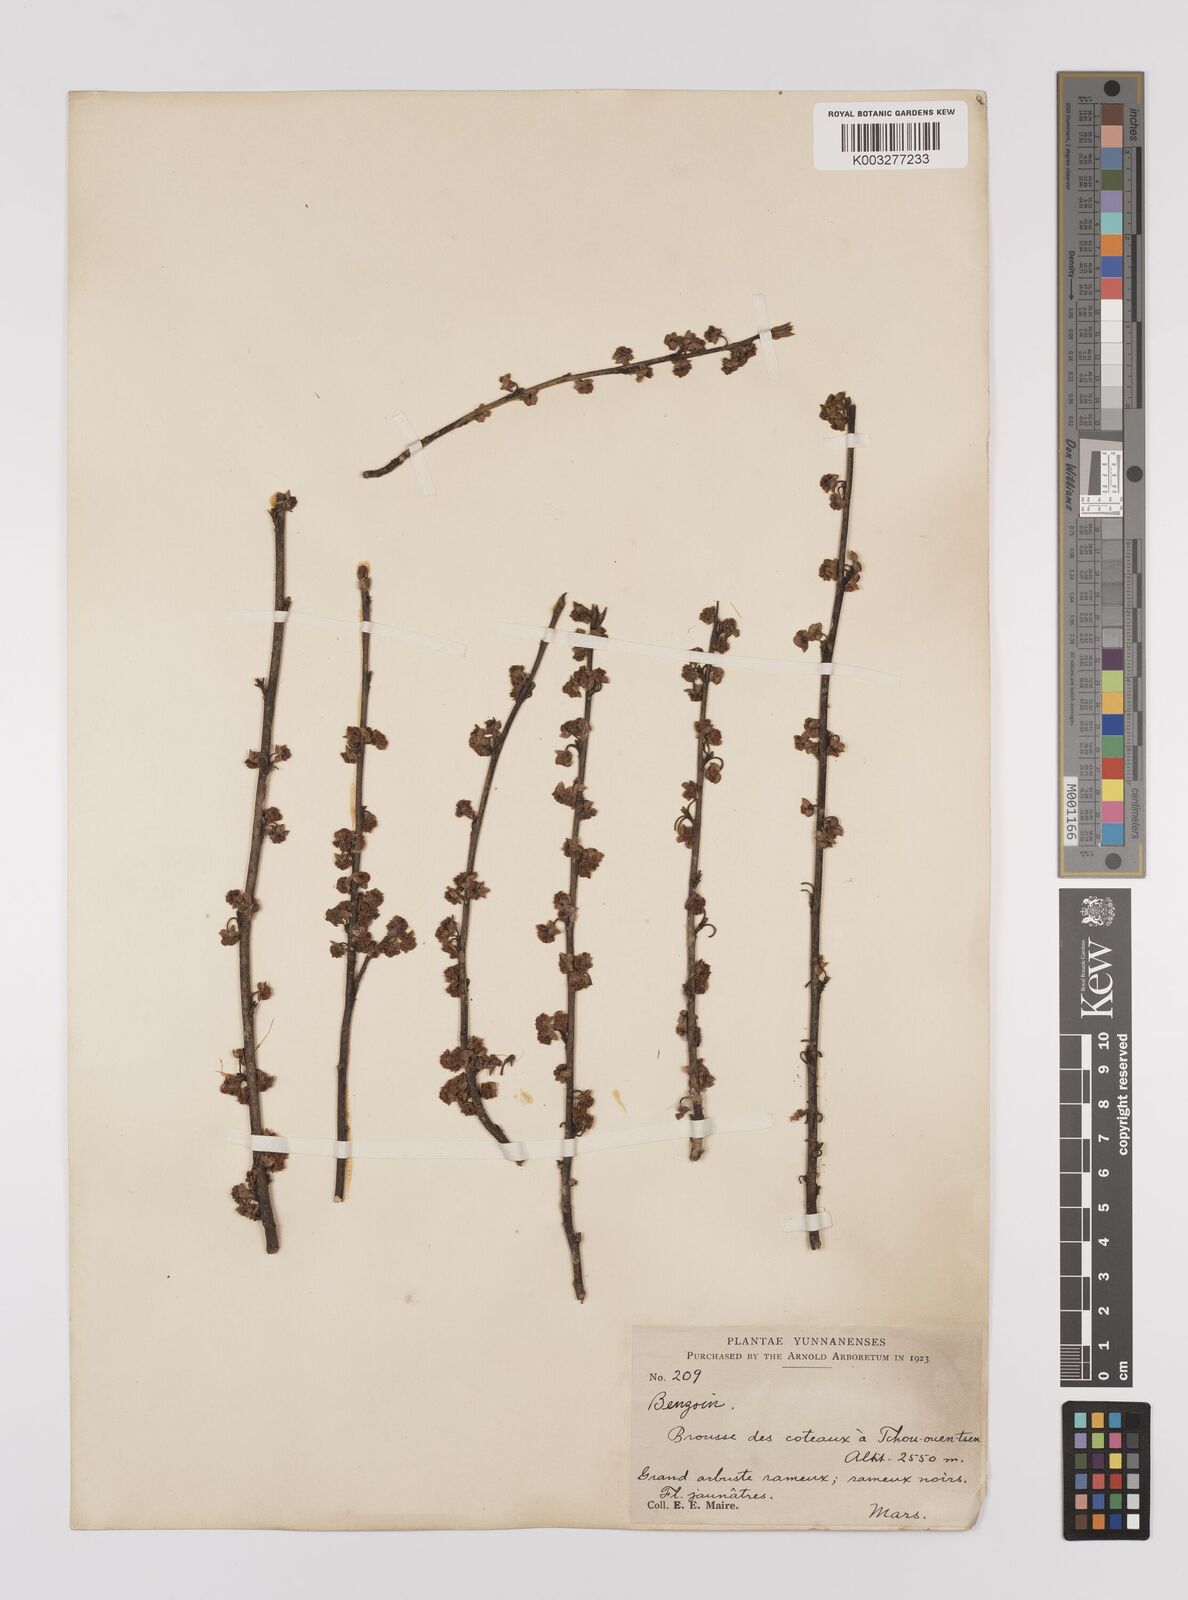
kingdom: Plantae
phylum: Tracheophyta
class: Magnoliopsida
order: Laurales
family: Lauraceae
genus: Lindera
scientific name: Lindera pipericarpa
